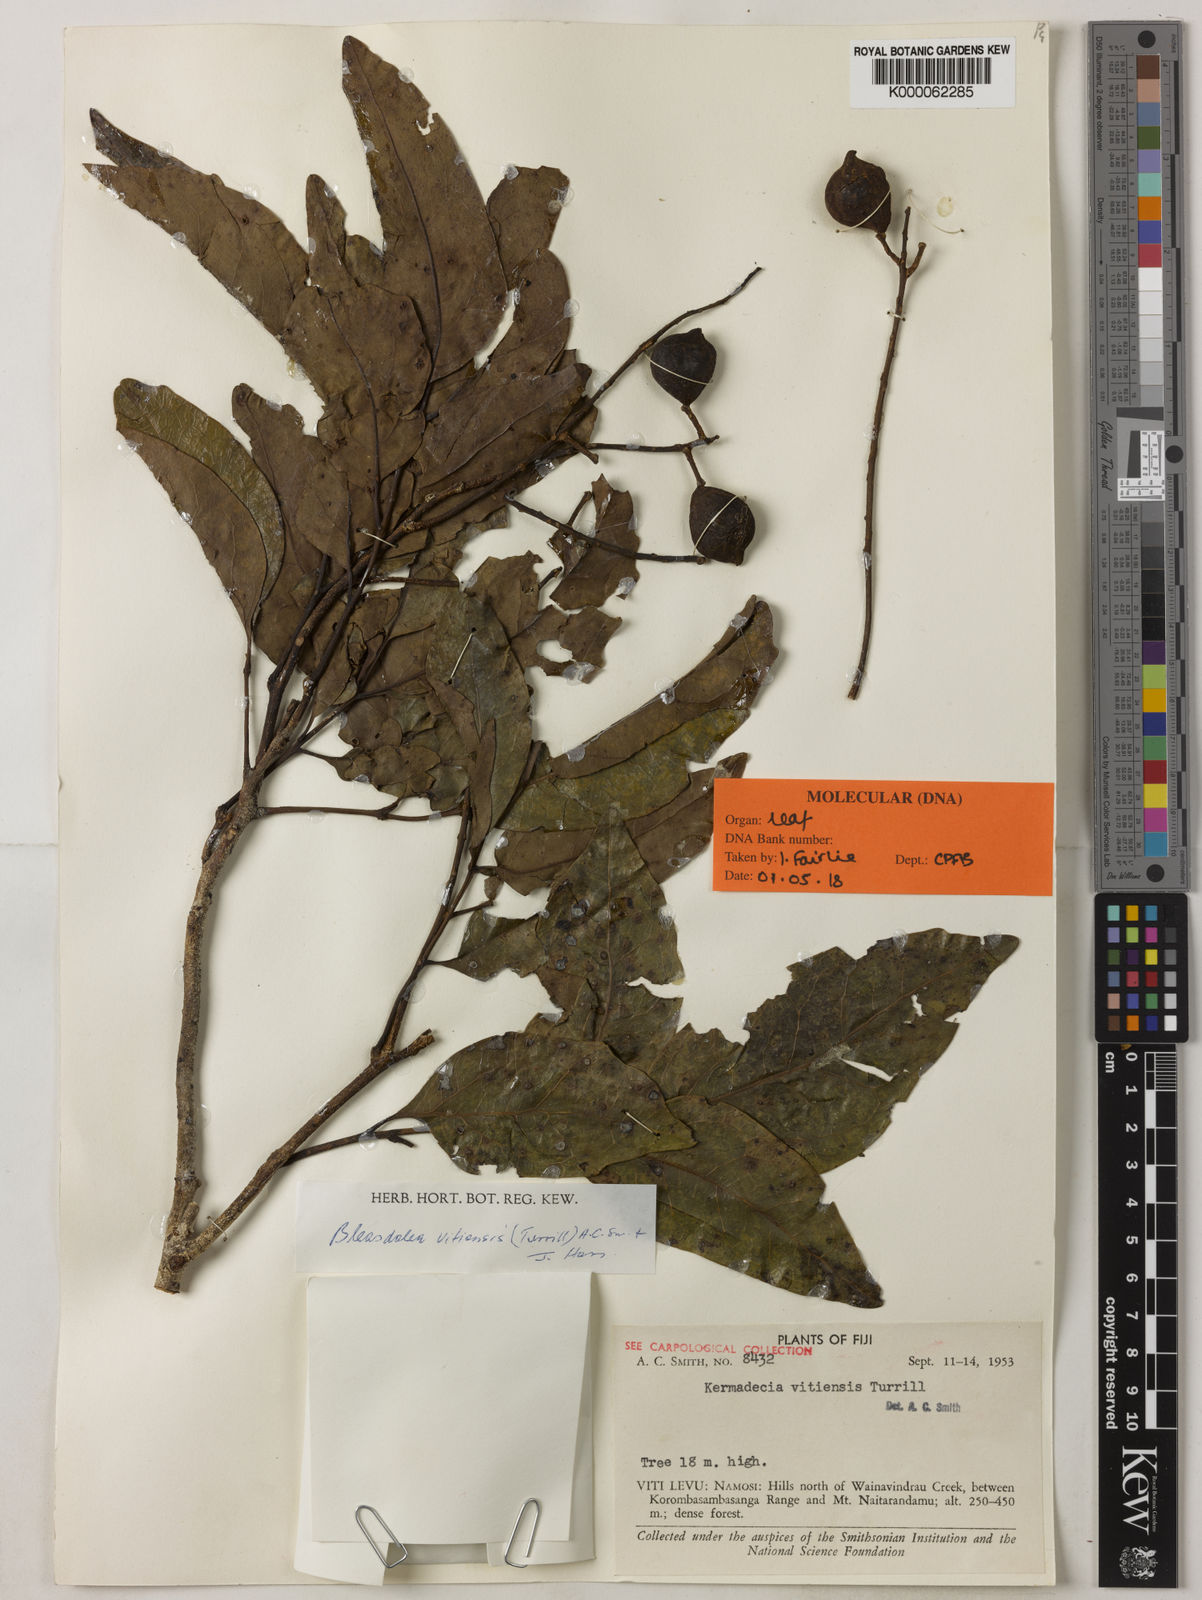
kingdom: Plantae
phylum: Tracheophyta
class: Magnoliopsida
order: Proteales
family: Proteaceae
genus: Turrillia
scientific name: Turrillia vitiensis
